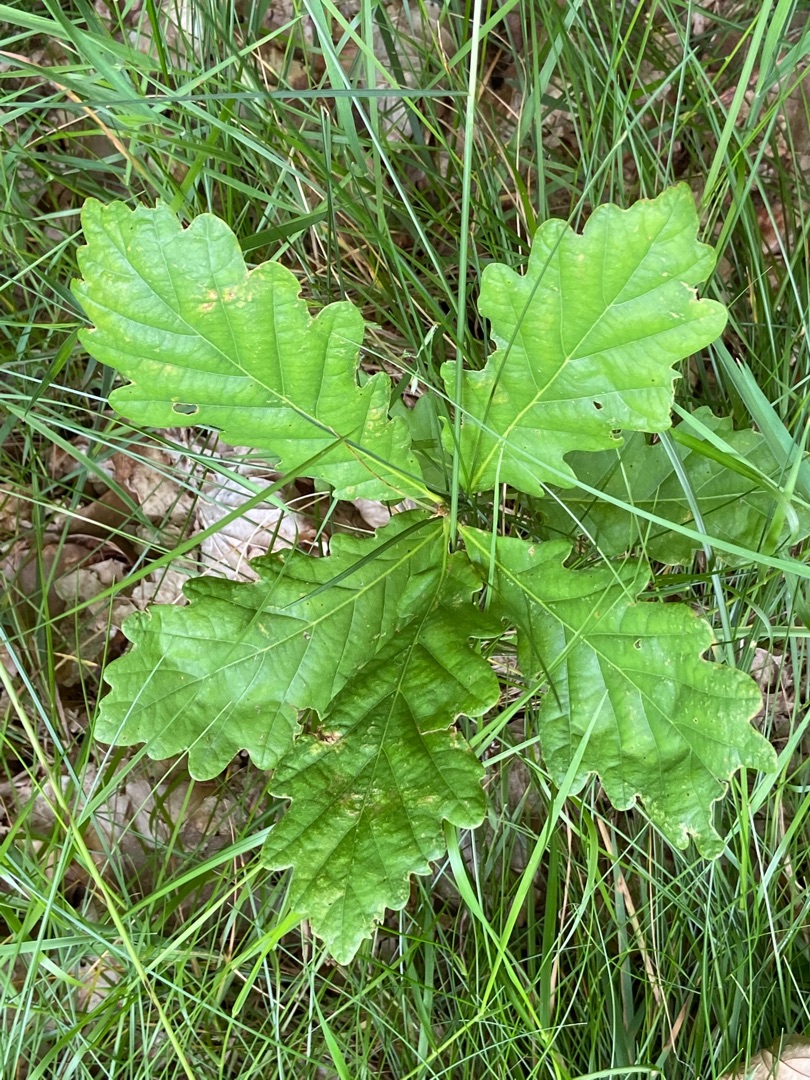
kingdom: Plantae
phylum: Tracheophyta
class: Magnoliopsida
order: Fagales
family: Fagaceae
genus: Quercus
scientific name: Quercus robur
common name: Stilk-eg/almindelig eg
